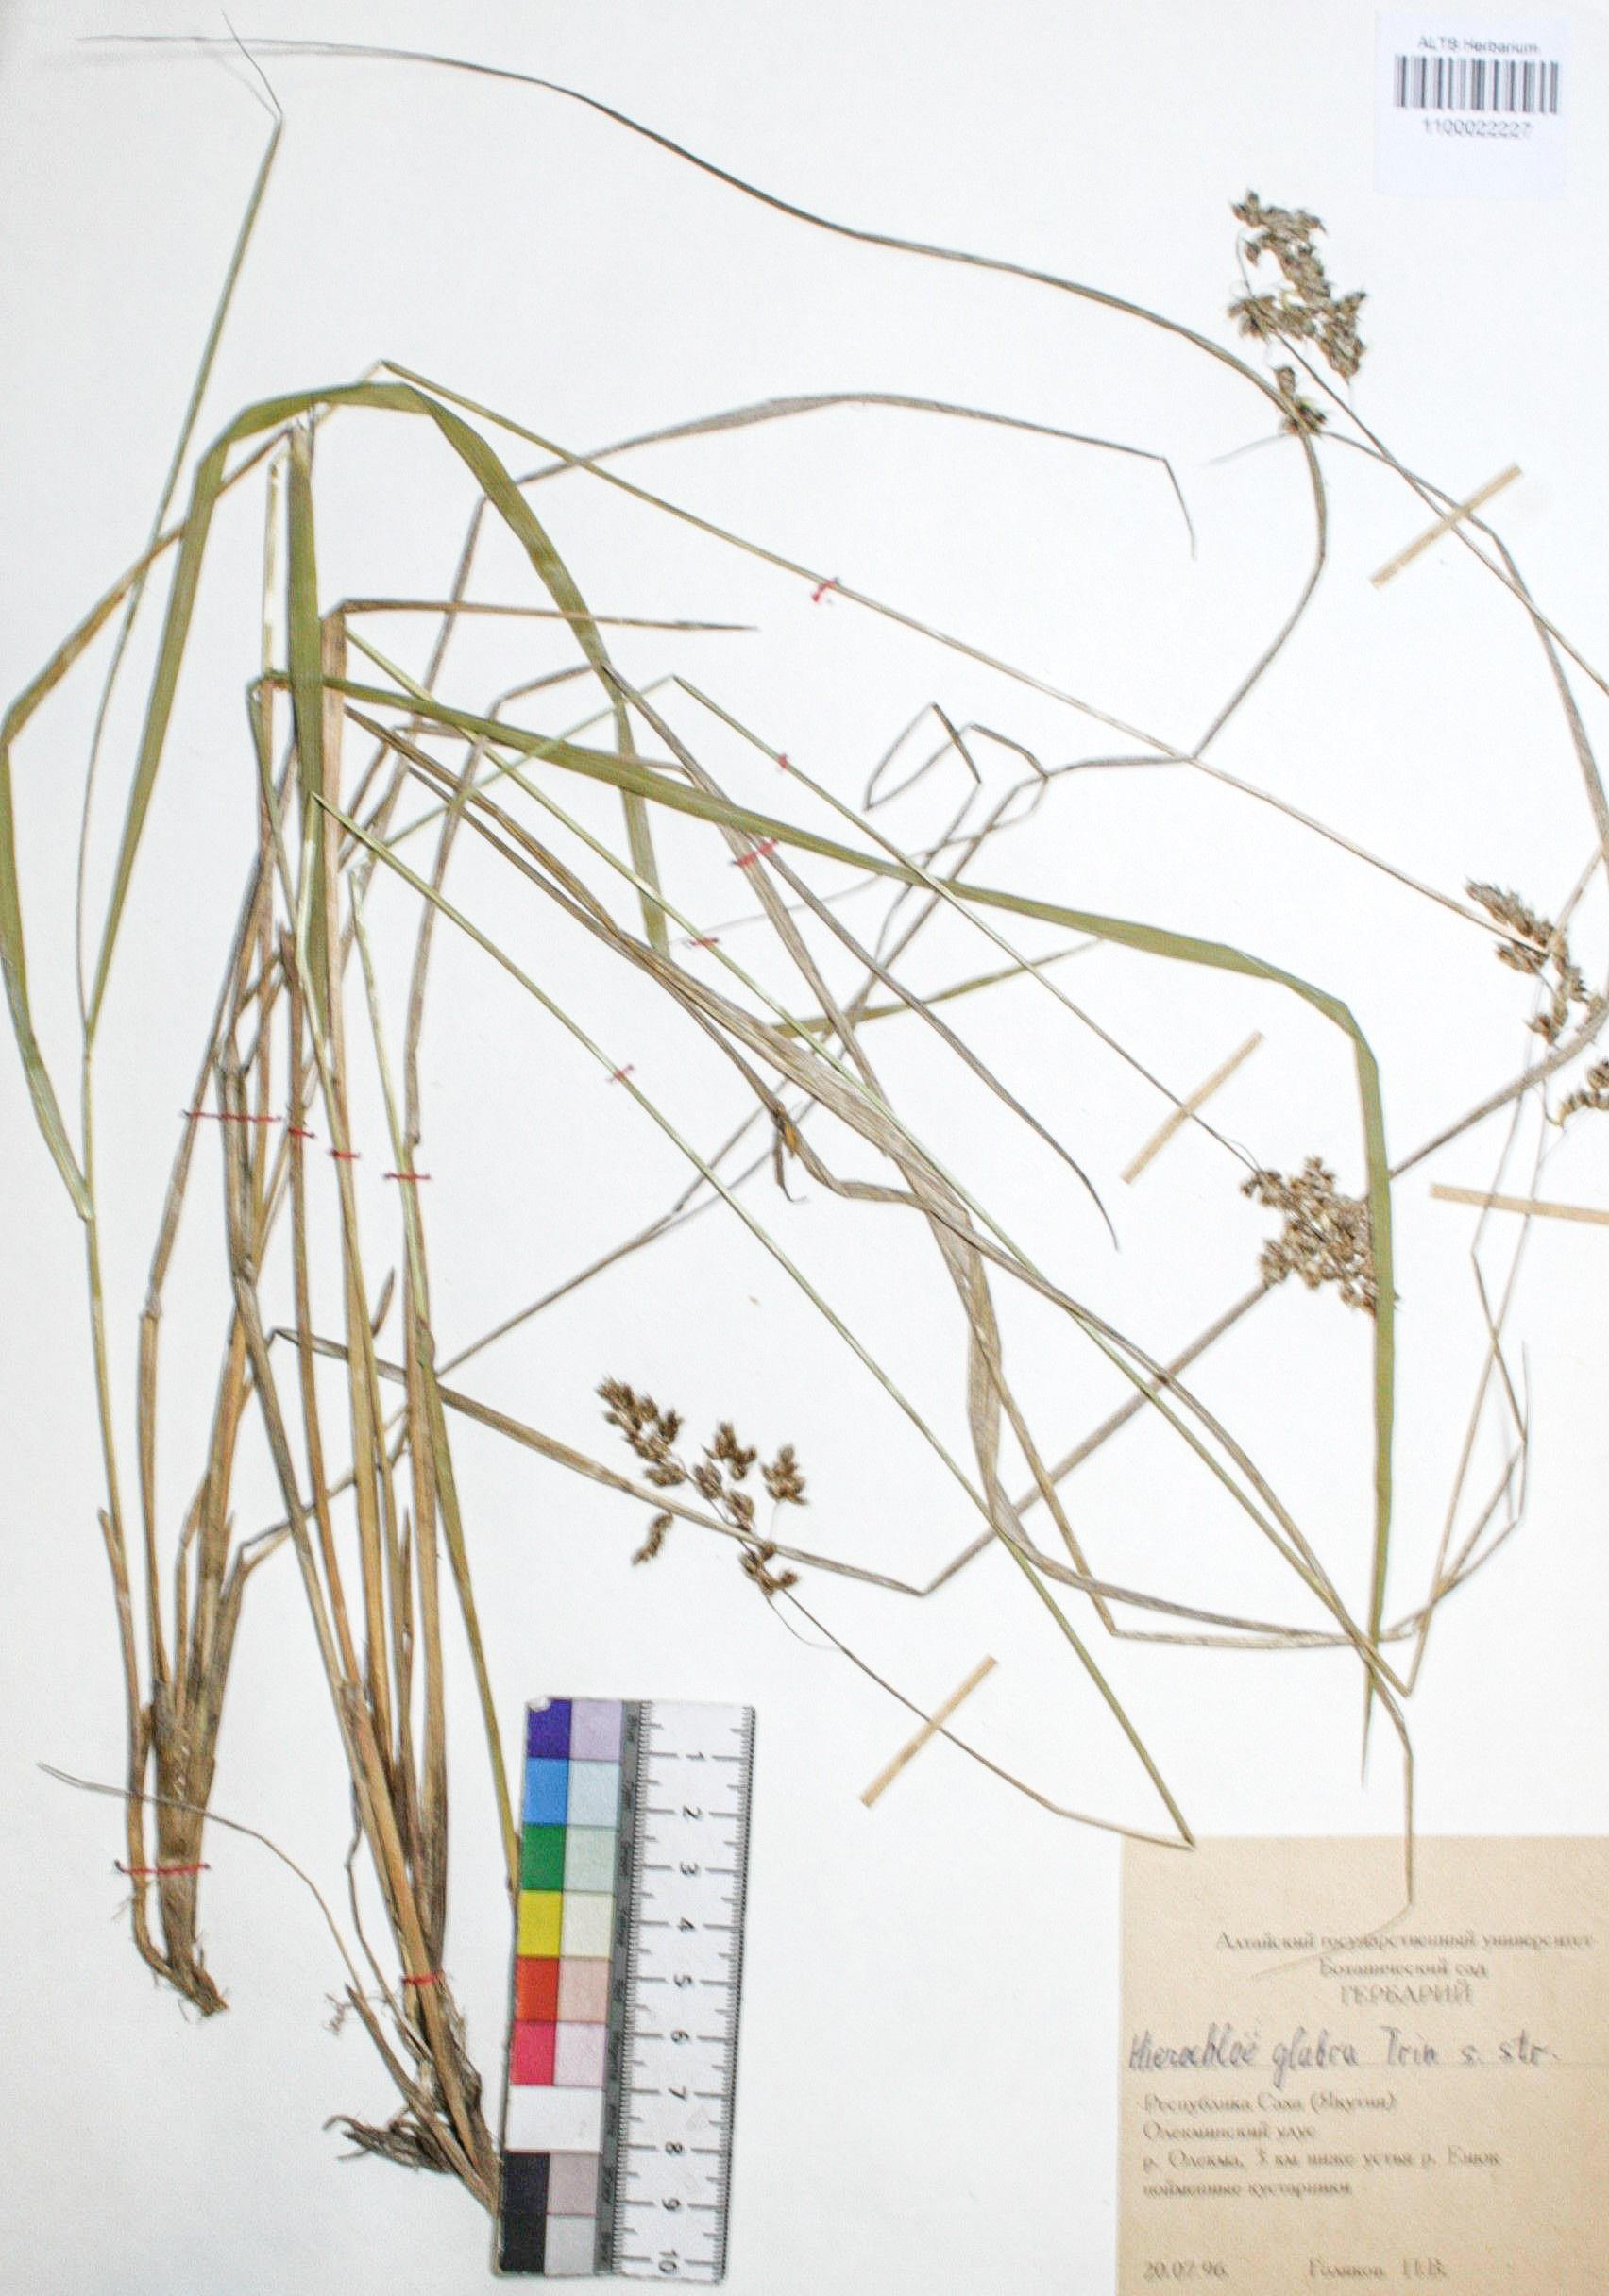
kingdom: Plantae
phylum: Tracheophyta
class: Liliopsida
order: Poales
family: Poaceae
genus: Anthoxanthum
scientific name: Anthoxanthum glabrum
